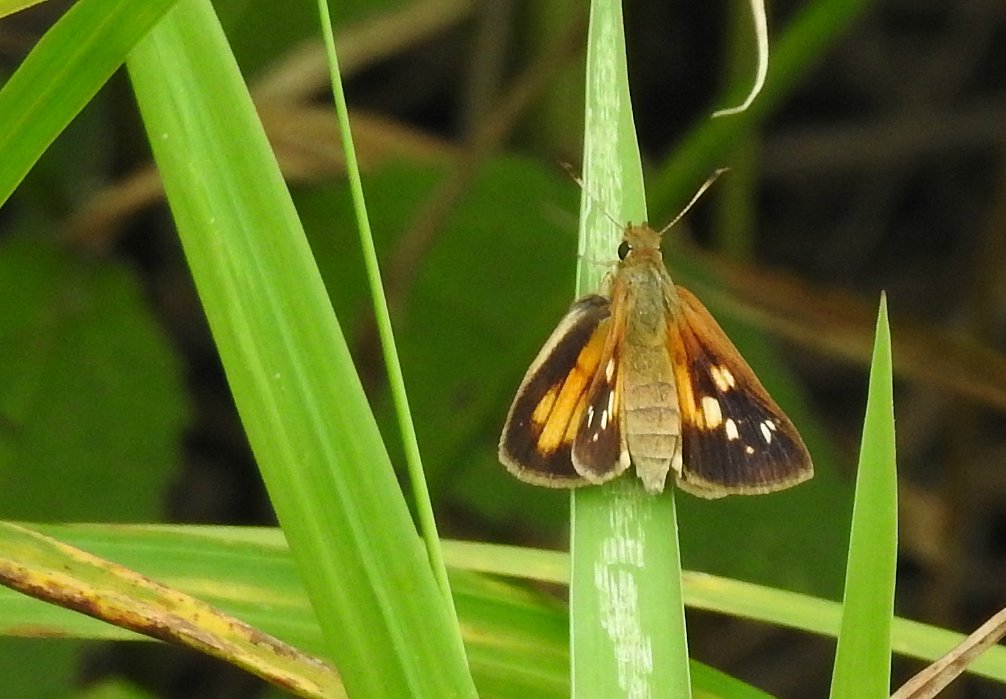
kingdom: Animalia
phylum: Arthropoda
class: Insecta
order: Lepidoptera
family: Hesperiidae
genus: Poanes
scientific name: Poanes viator
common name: Broad-winged Skipper
